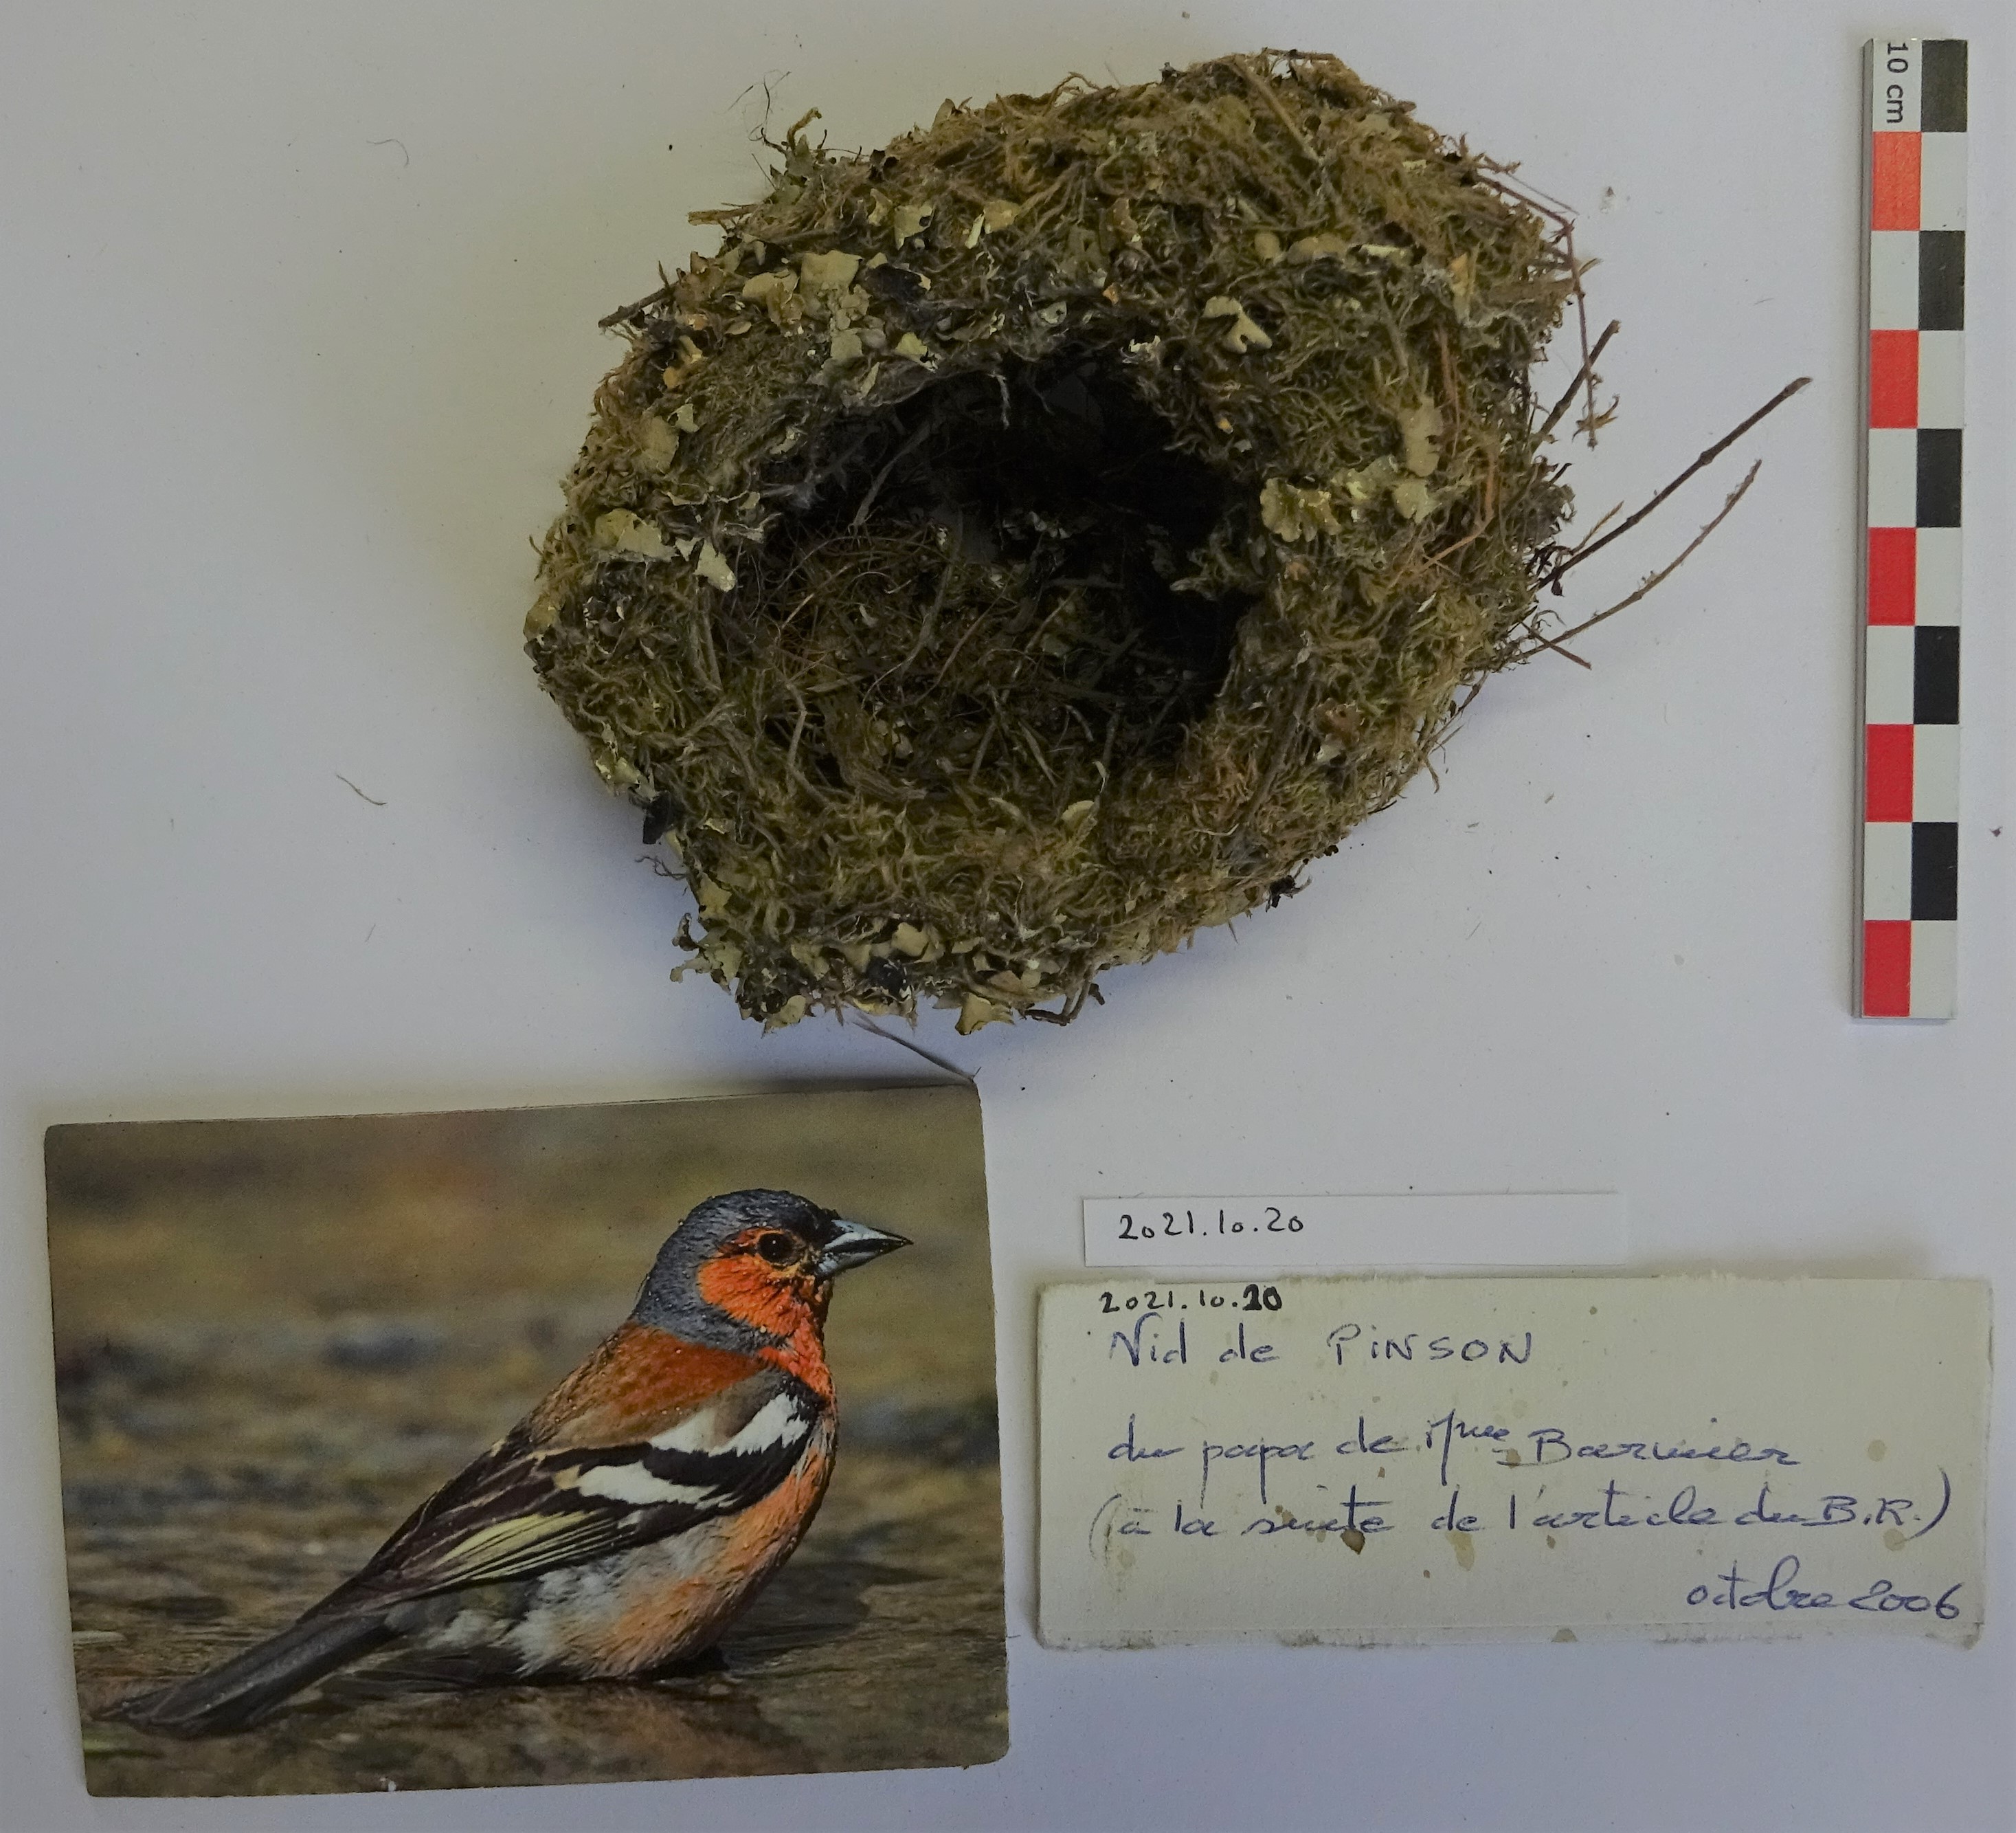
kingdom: Animalia
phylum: Chordata
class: Aves
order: Passeriformes
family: Fringillidae
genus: Fringilla
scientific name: Fringilla coelebs
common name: Common chaffinch
